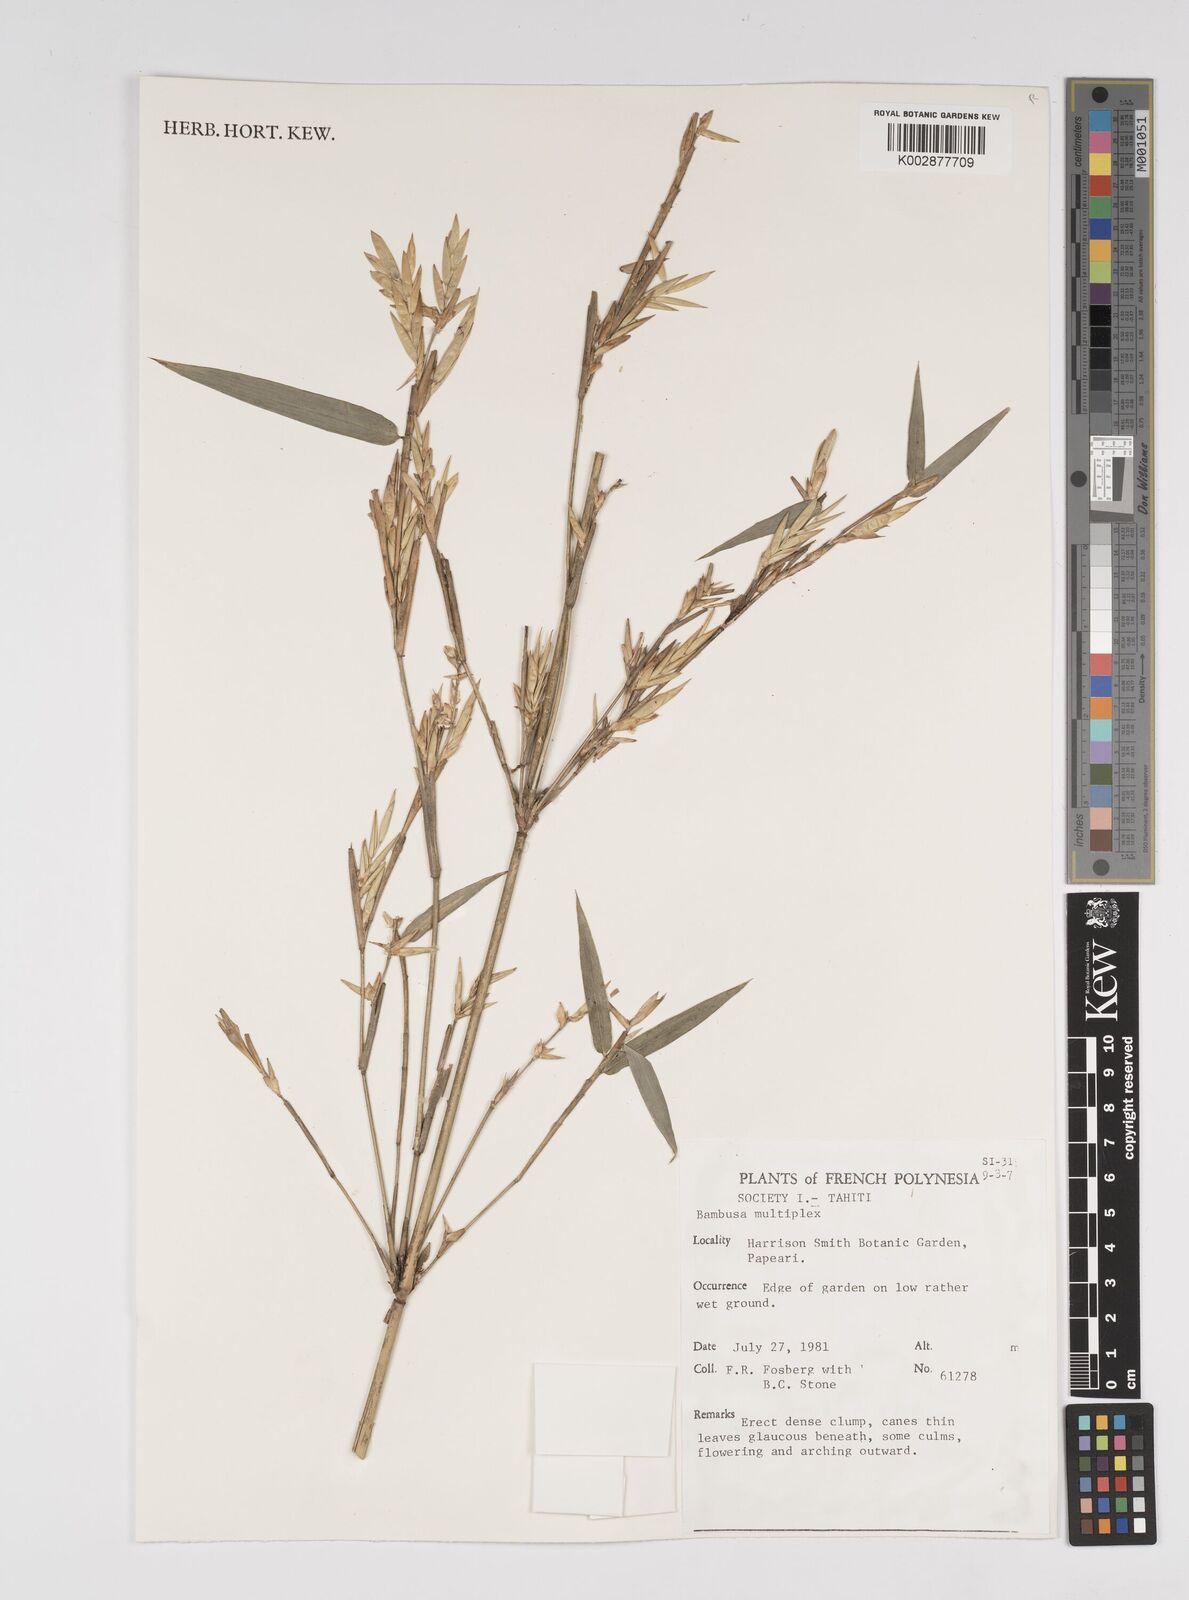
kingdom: Plantae
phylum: Tracheophyta
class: Liliopsida
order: Poales
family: Poaceae
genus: Bambusa
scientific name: Bambusa multiplex
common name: Hedge bamboo
